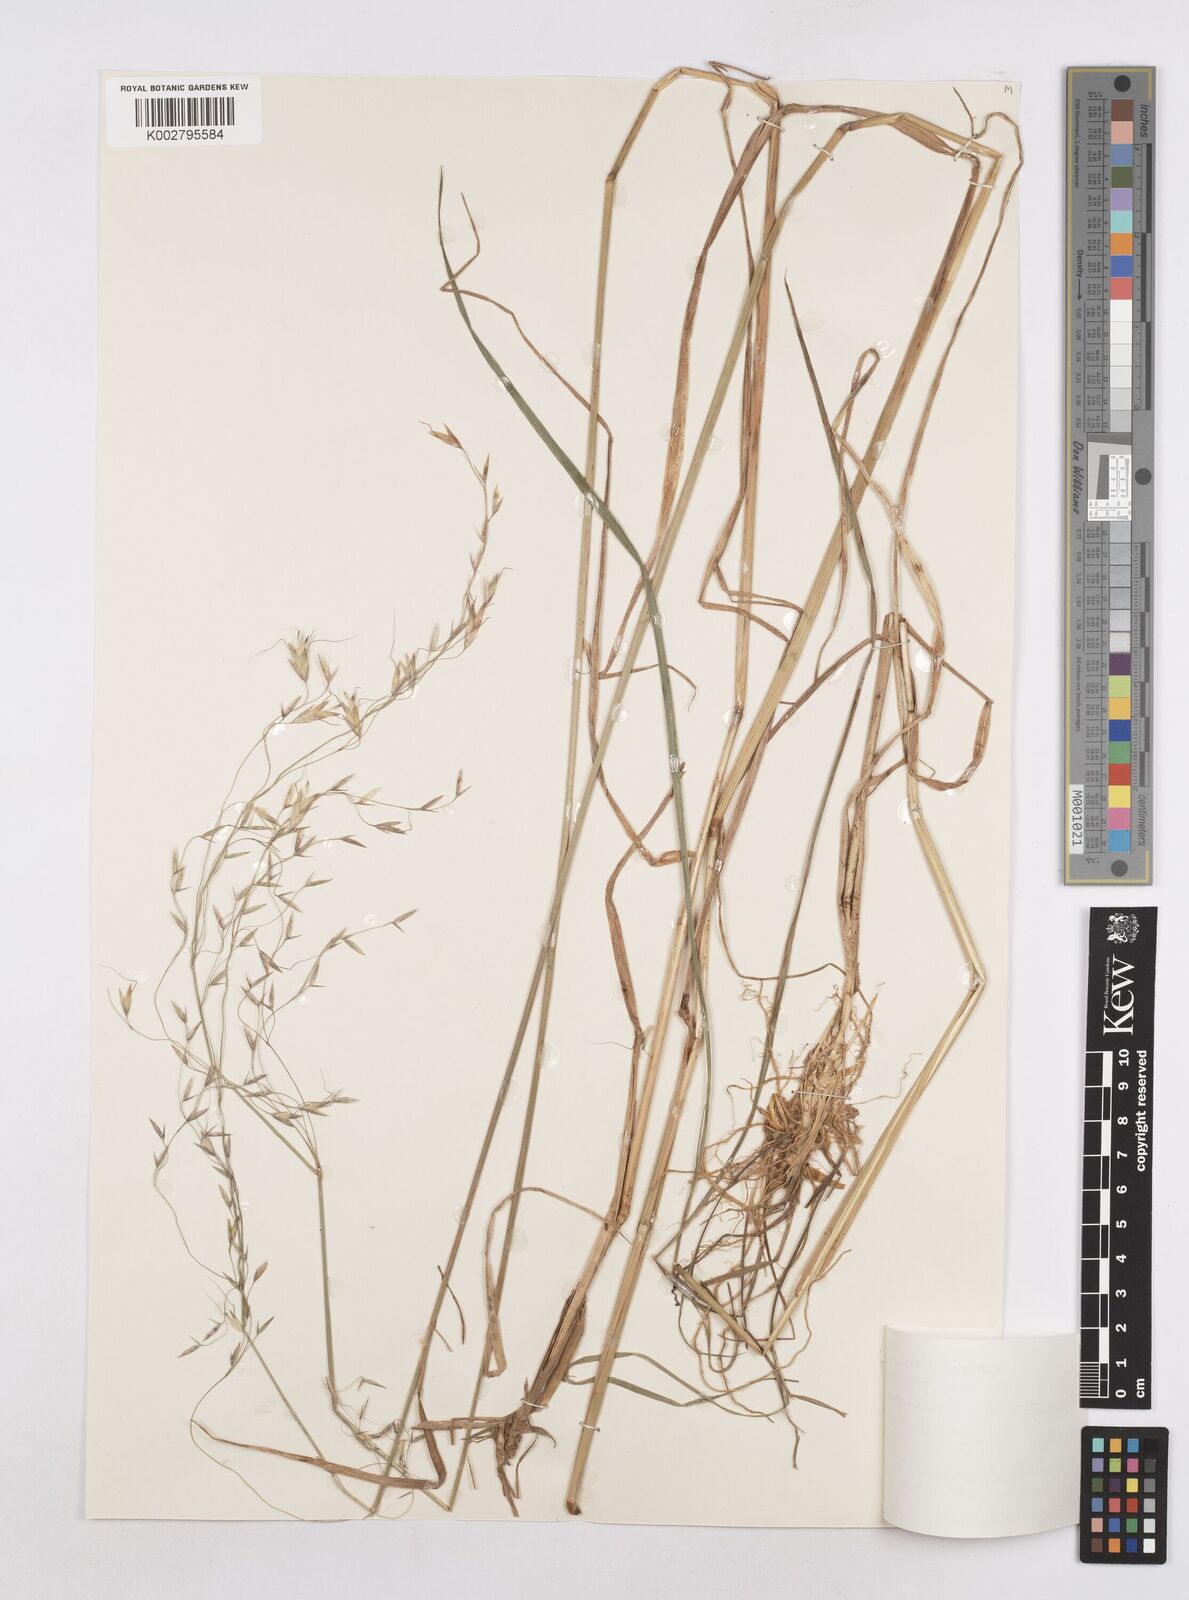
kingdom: Plantae
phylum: Tracheophyta
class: Liliopsida
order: Poales
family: Poaceae
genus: Trisetopsis
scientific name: Trisetopsis junghuhnii
